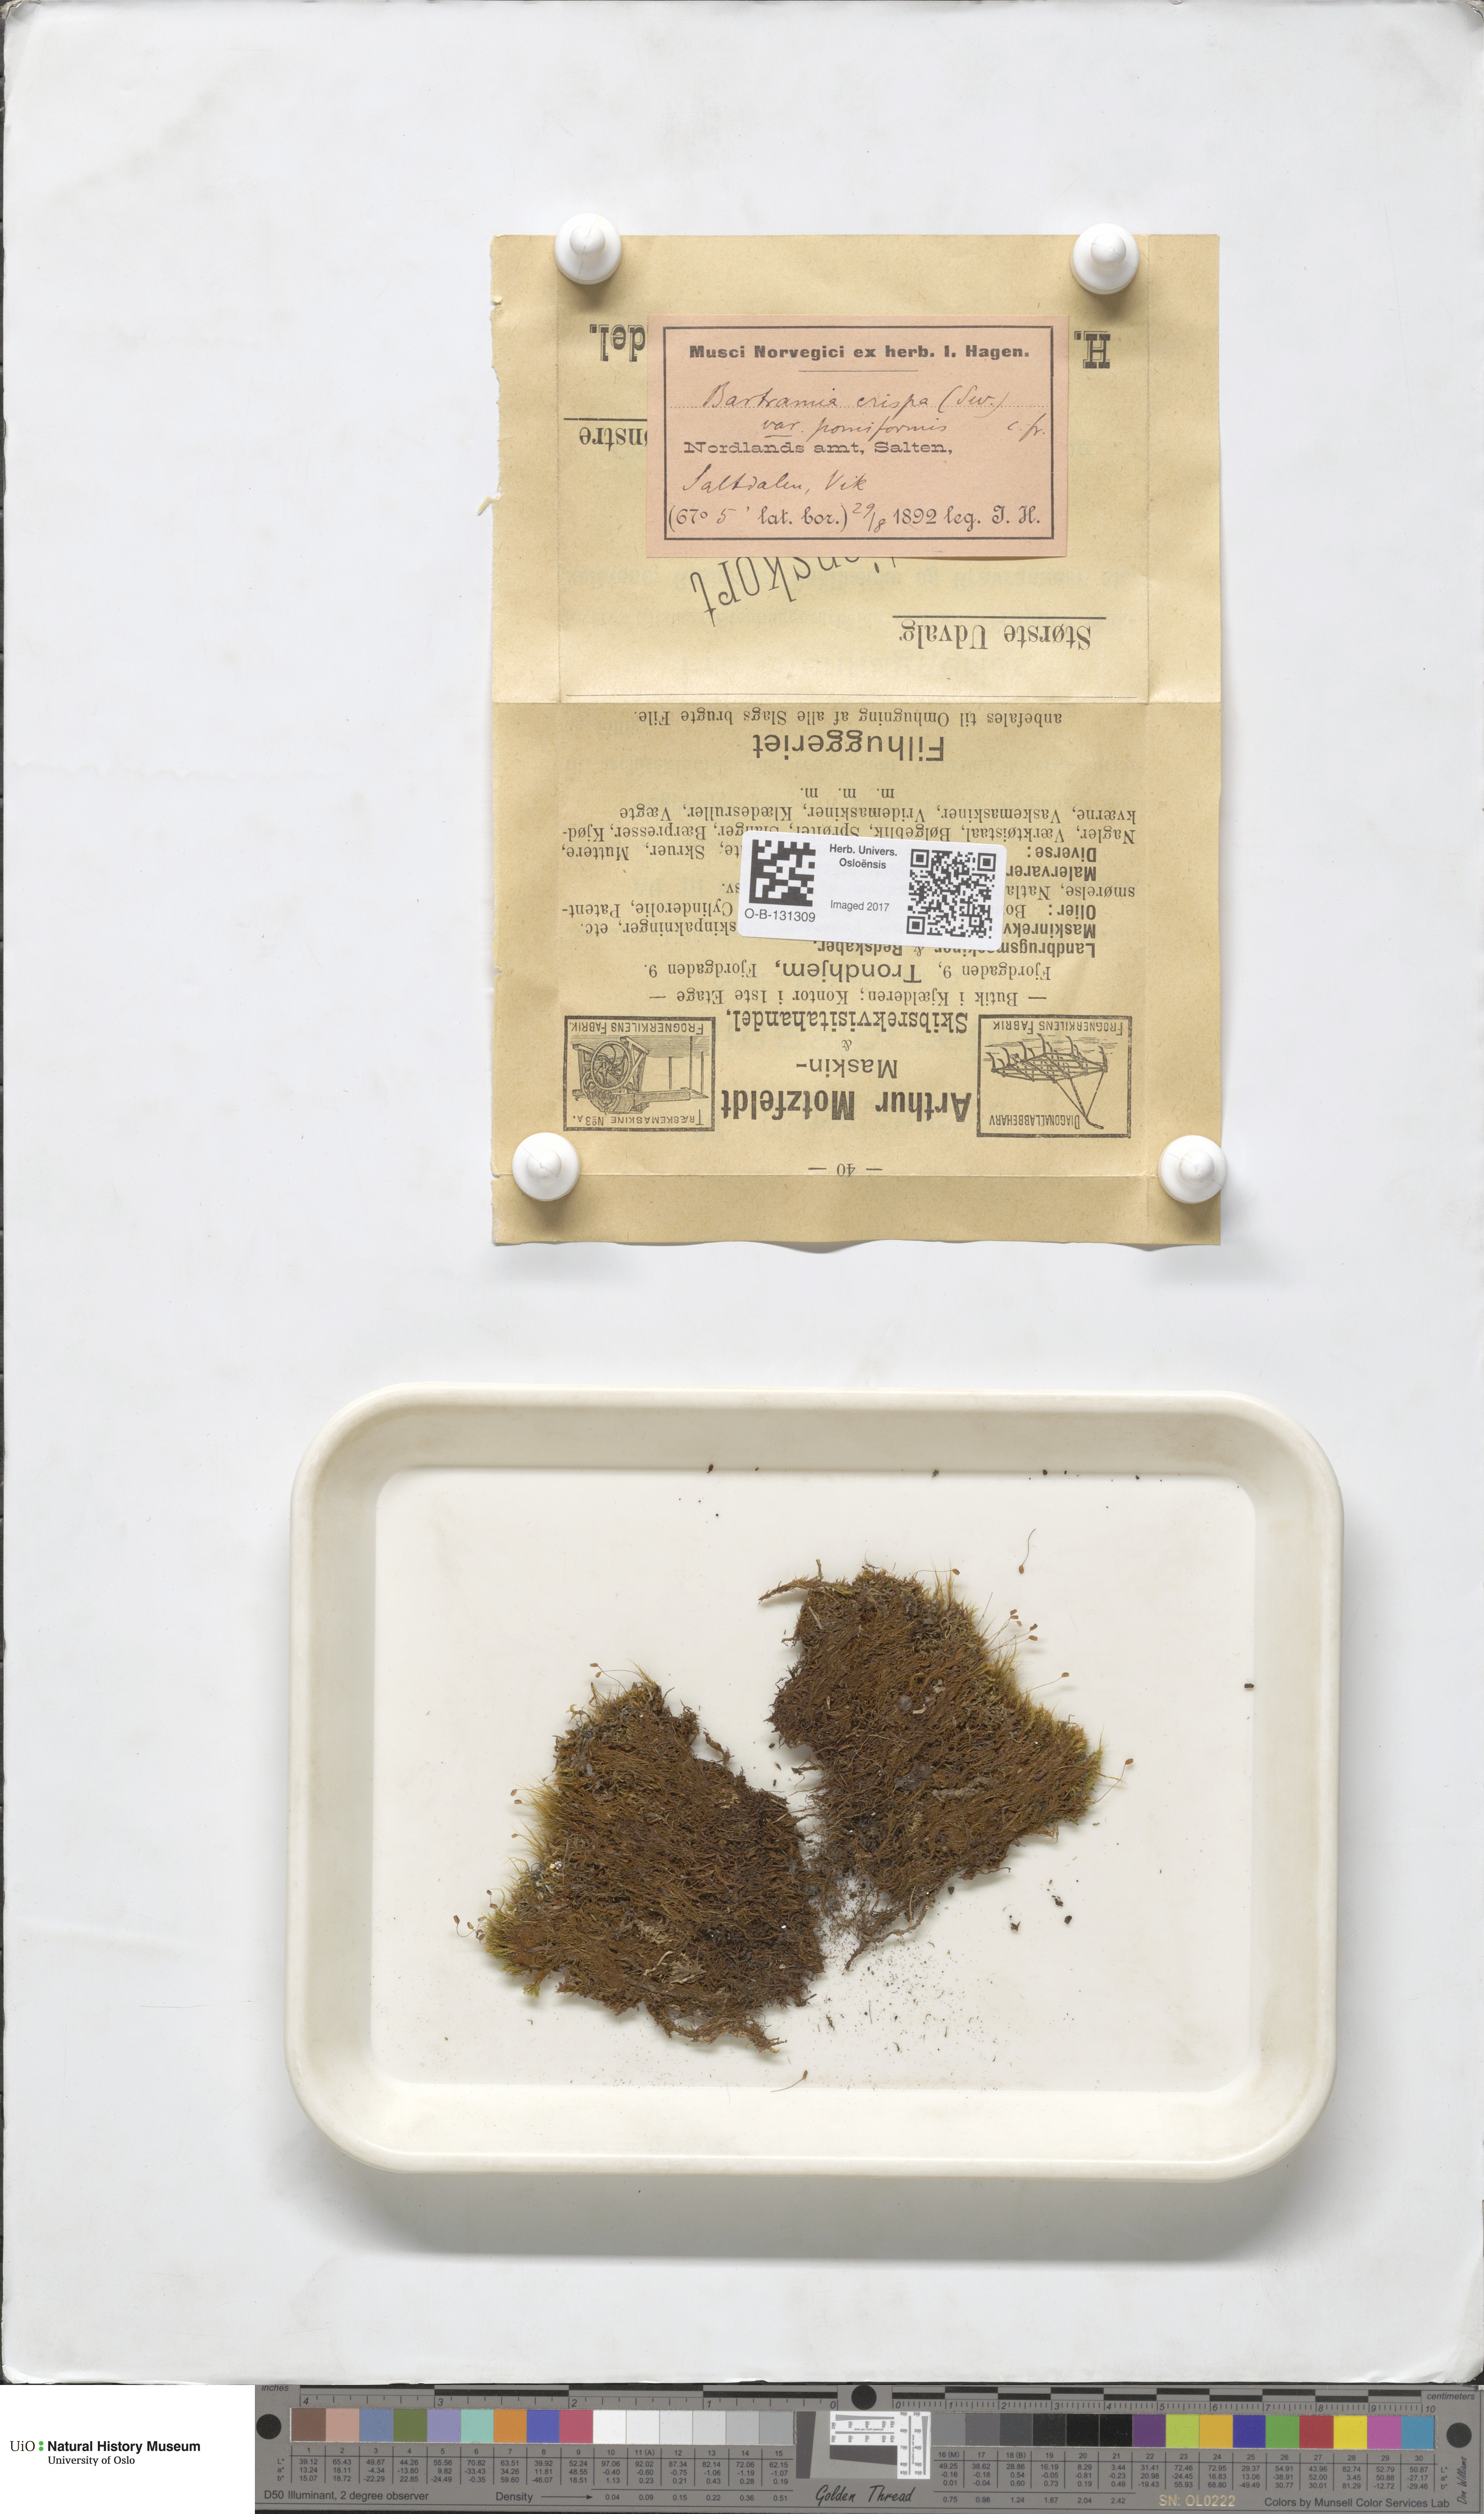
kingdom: Plantae
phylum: Bryophyta
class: Bryopsida
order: Bartramiales
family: Bartramiaceae
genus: Bartramia
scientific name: Bartramia pomiformis
